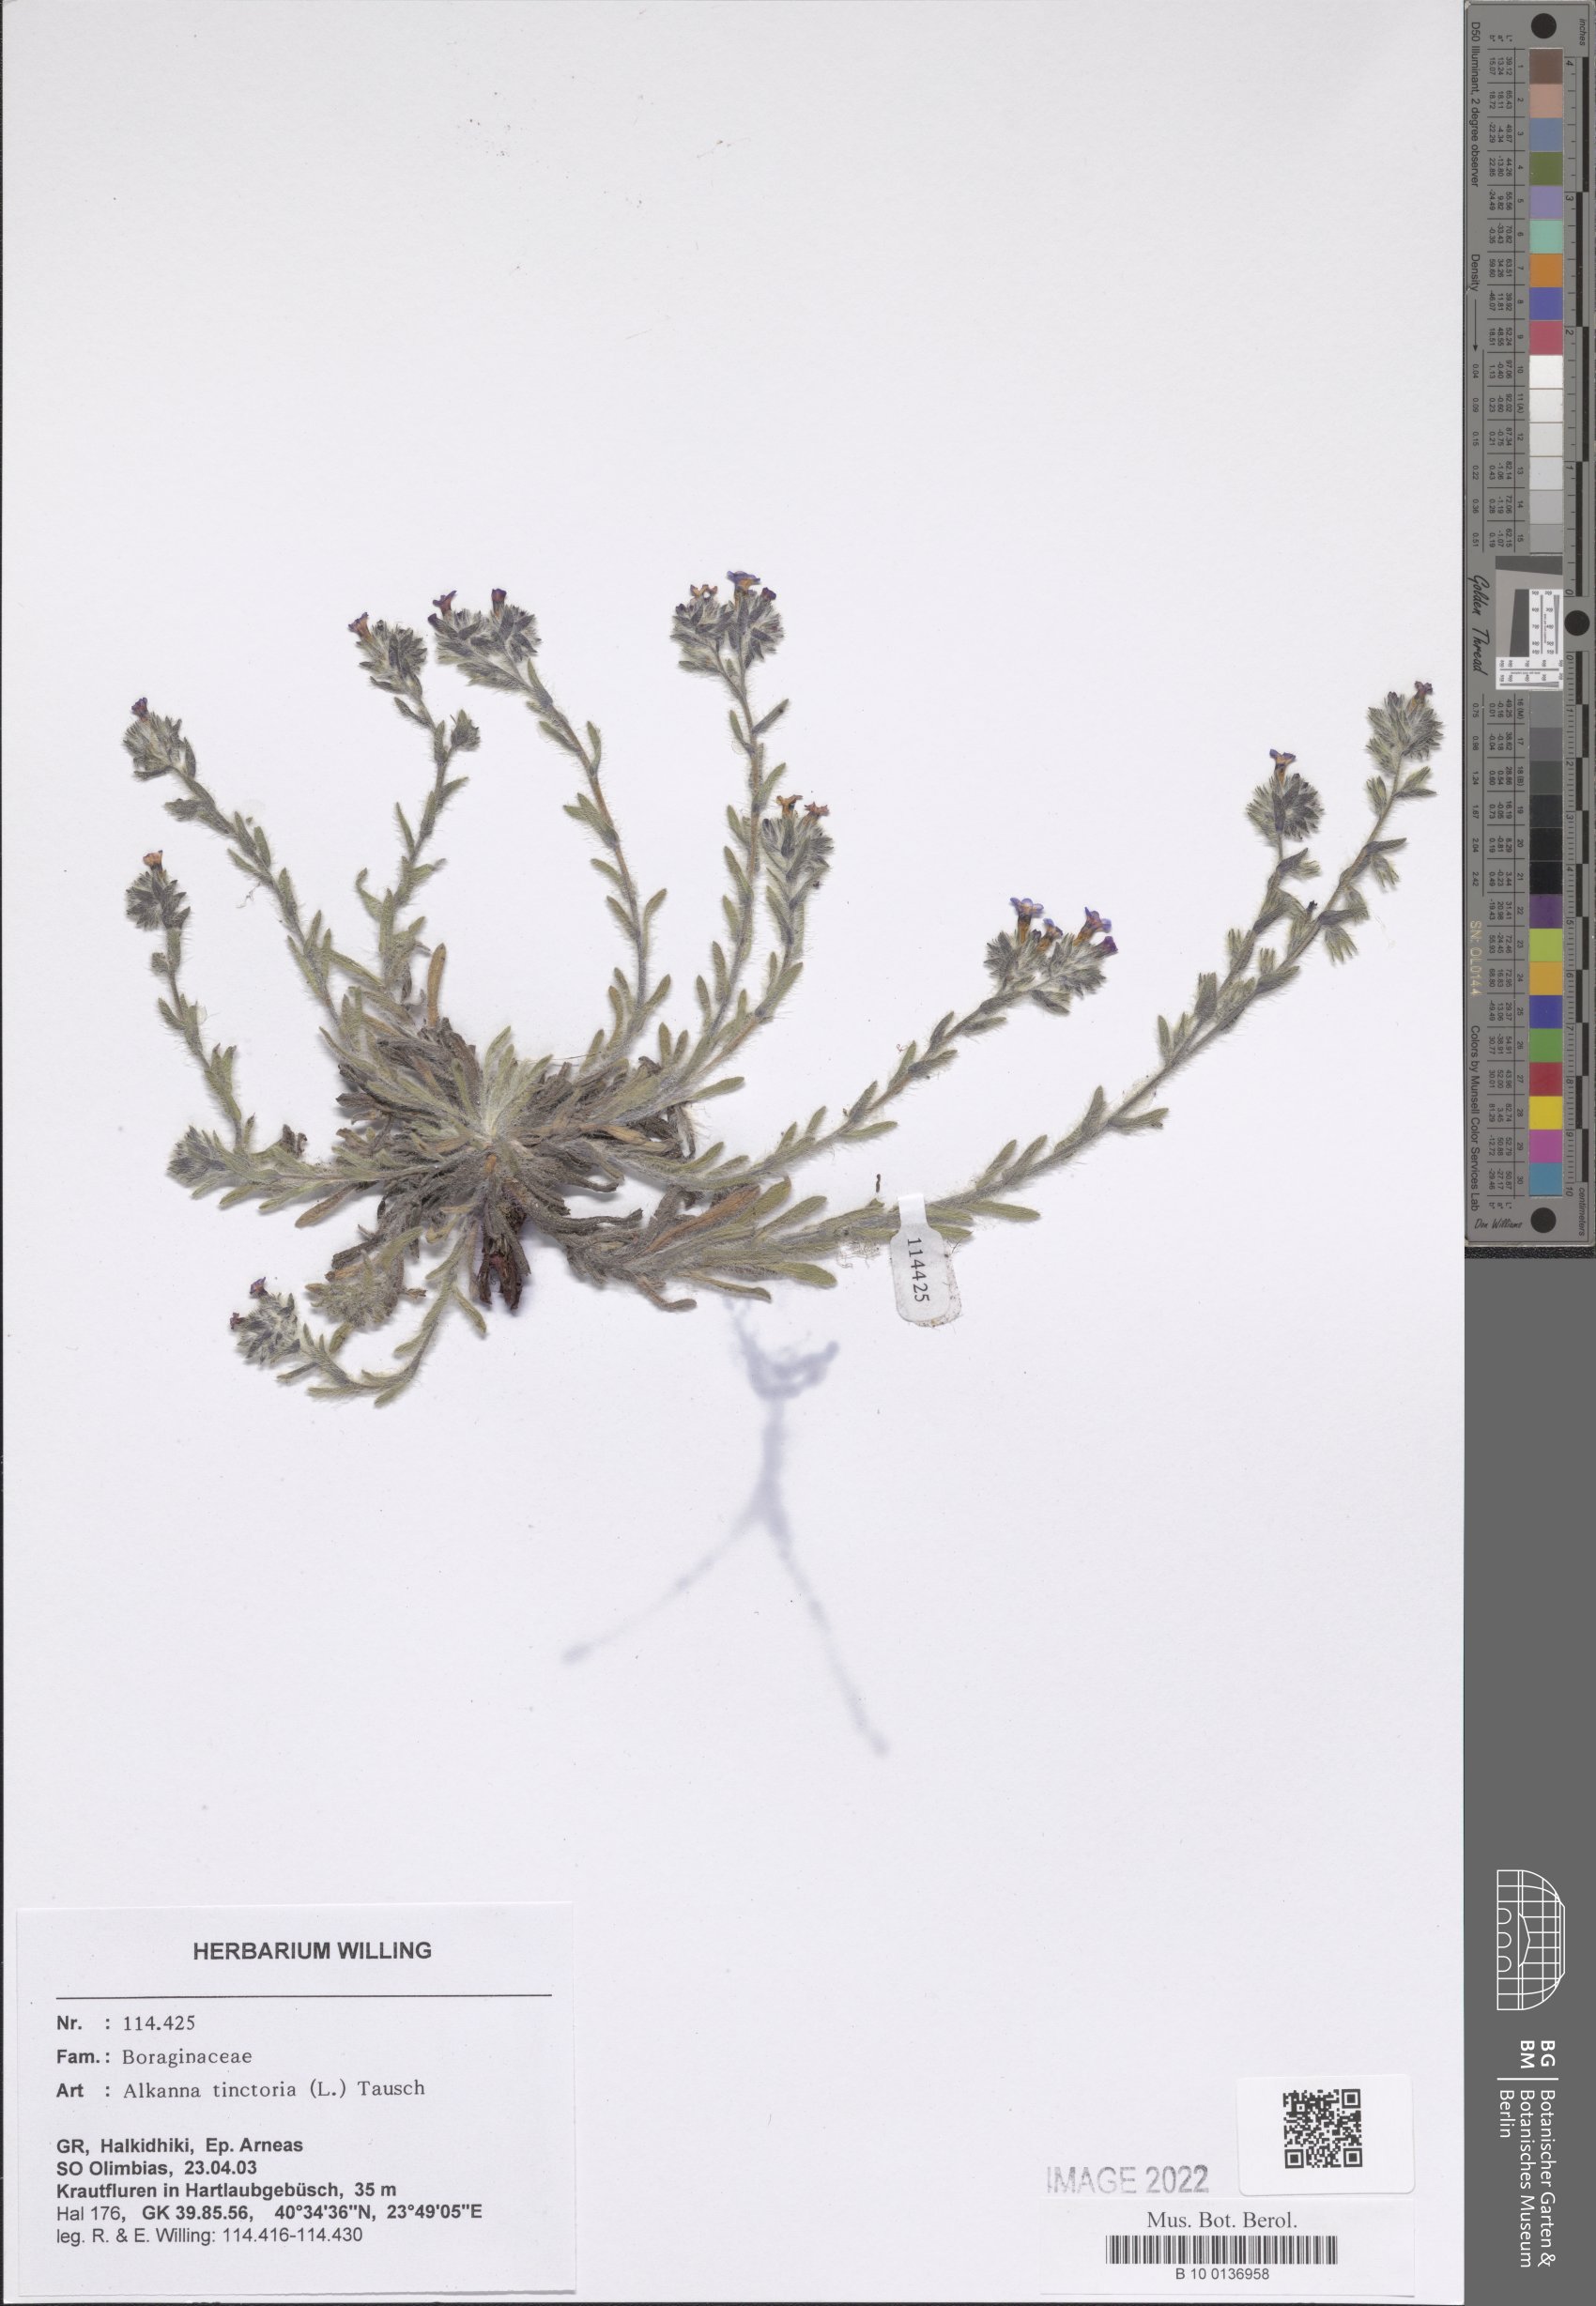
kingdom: Plantae
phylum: Tracheophyta
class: Magnoliopsida
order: Boraginales
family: Boraginaceae
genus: Alkanna
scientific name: Alkanna tinctoria
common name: Dyer's-alkanet
